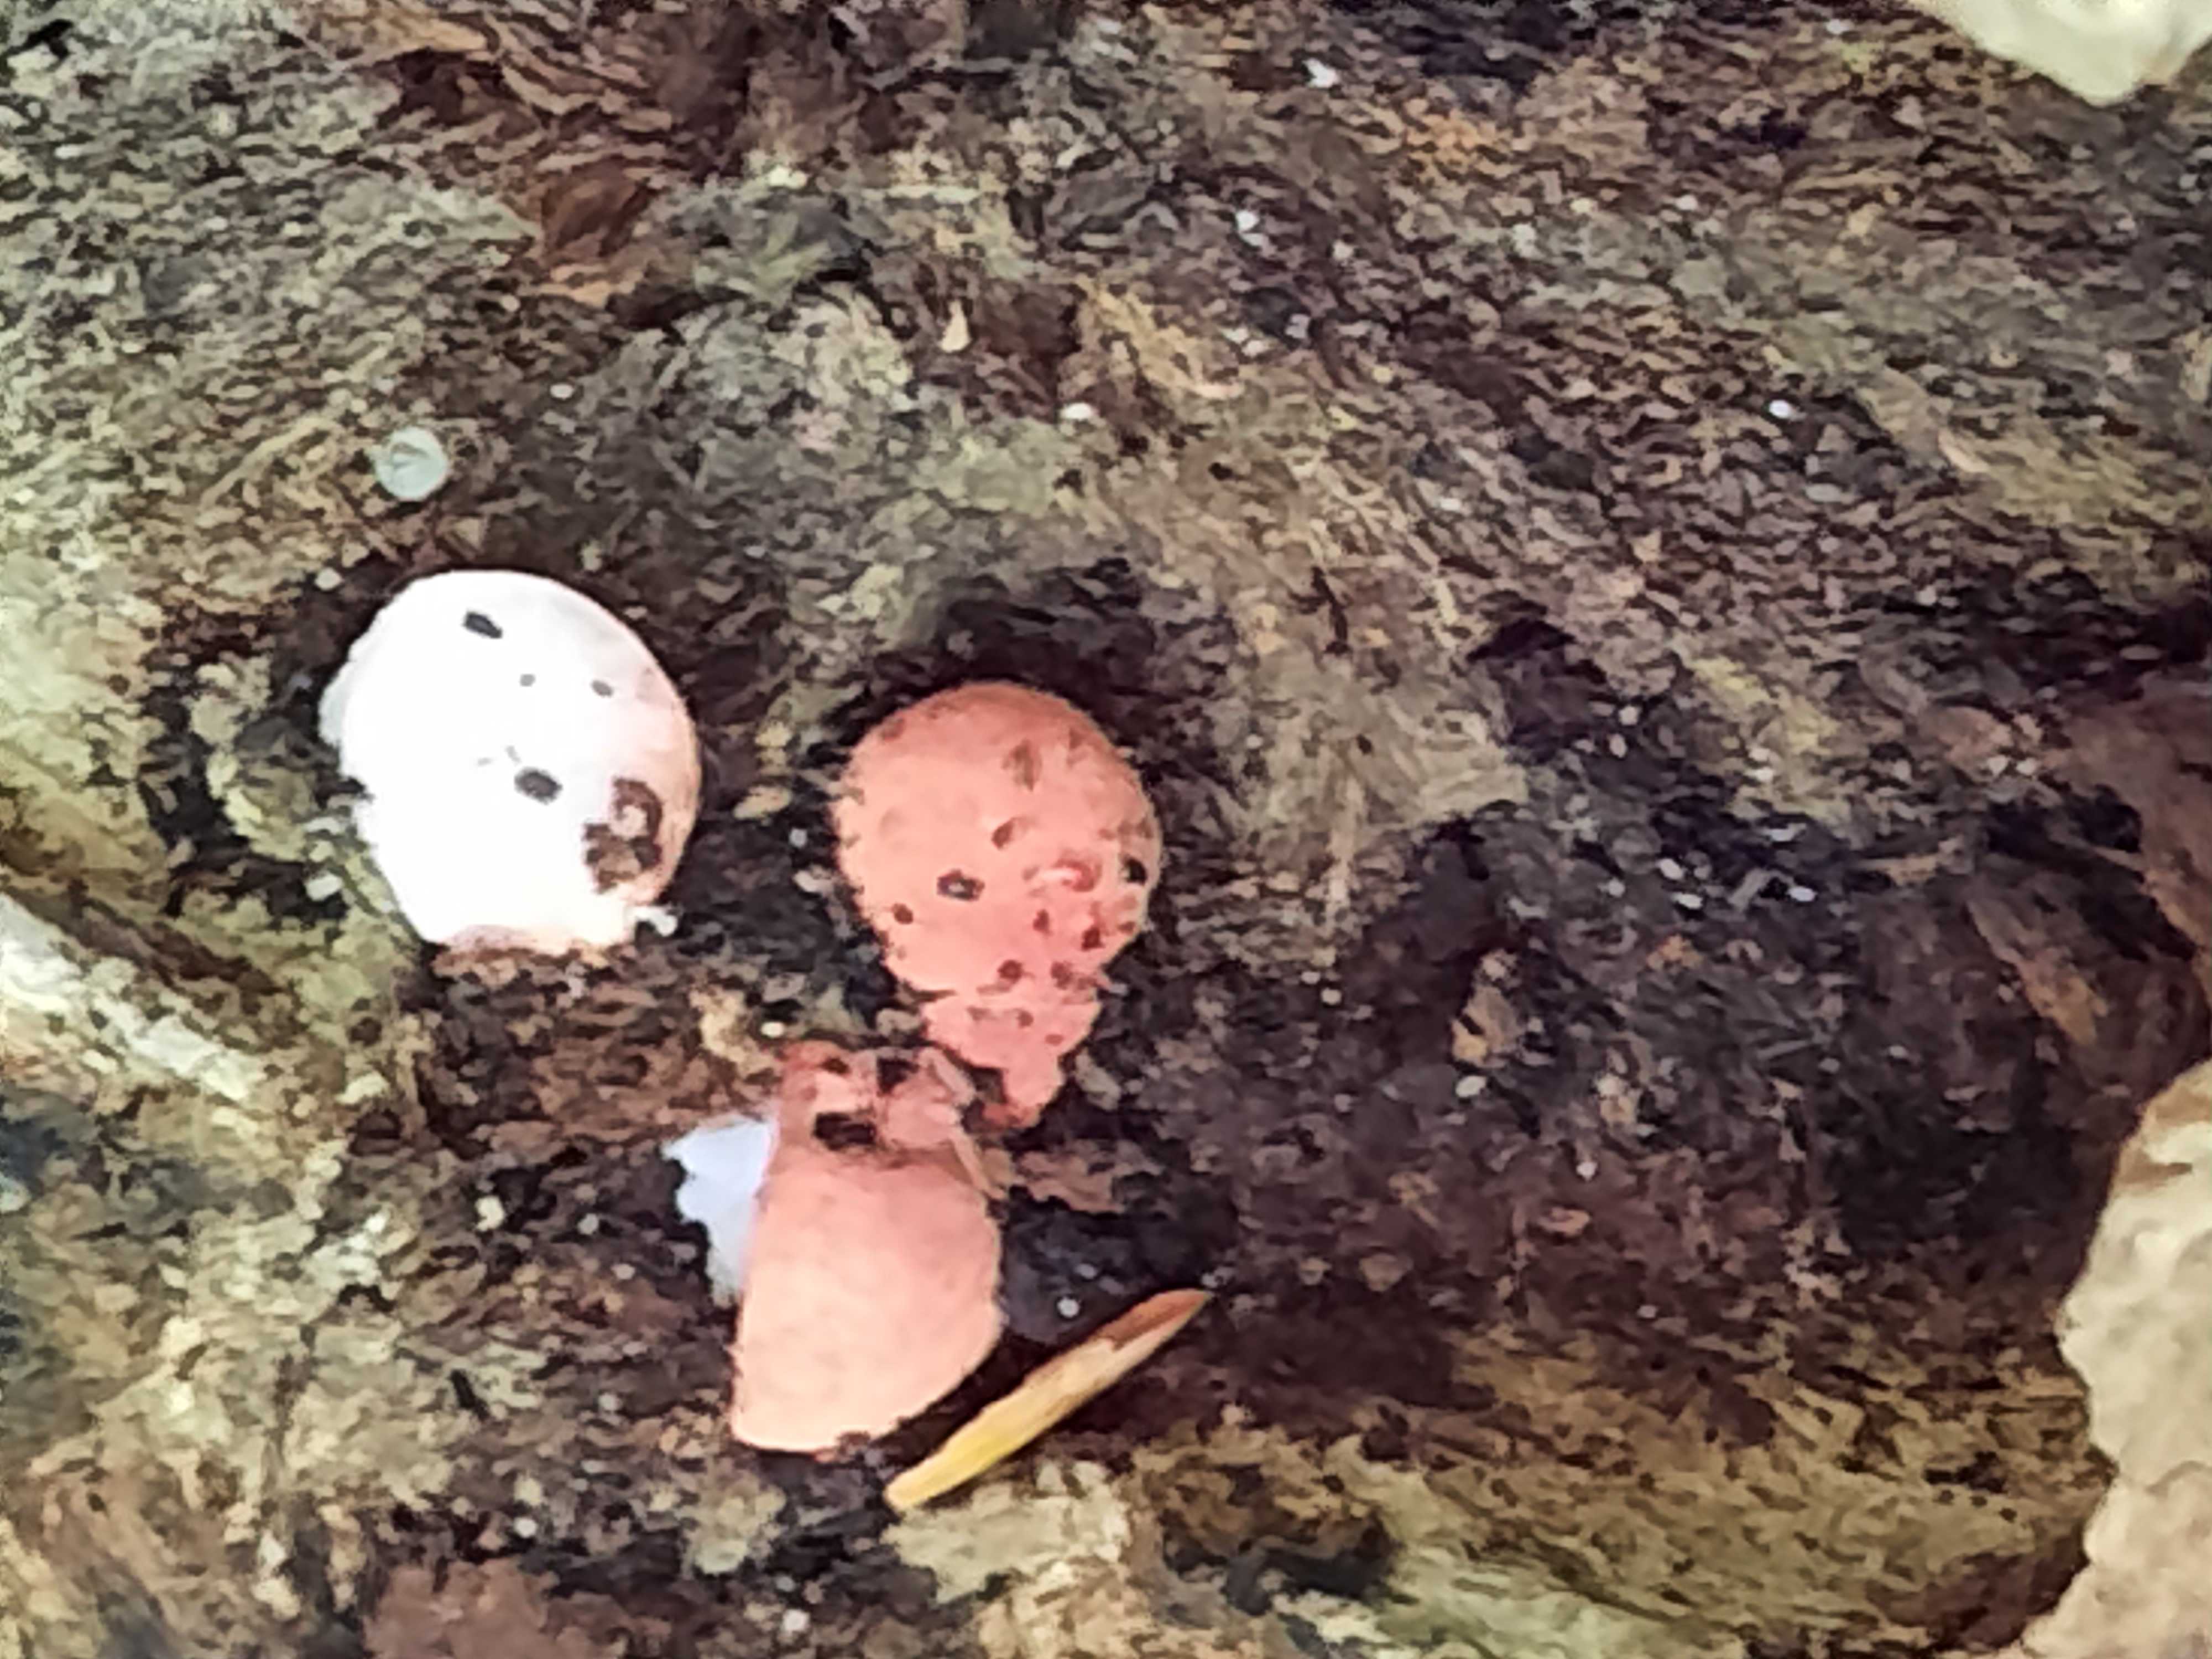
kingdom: Fungi
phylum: Basidiomycota
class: Agaricomycetes
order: Agaricales
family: Fistulinaceae
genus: Fistulina
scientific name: Fistulina hepatica
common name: oksetunge
